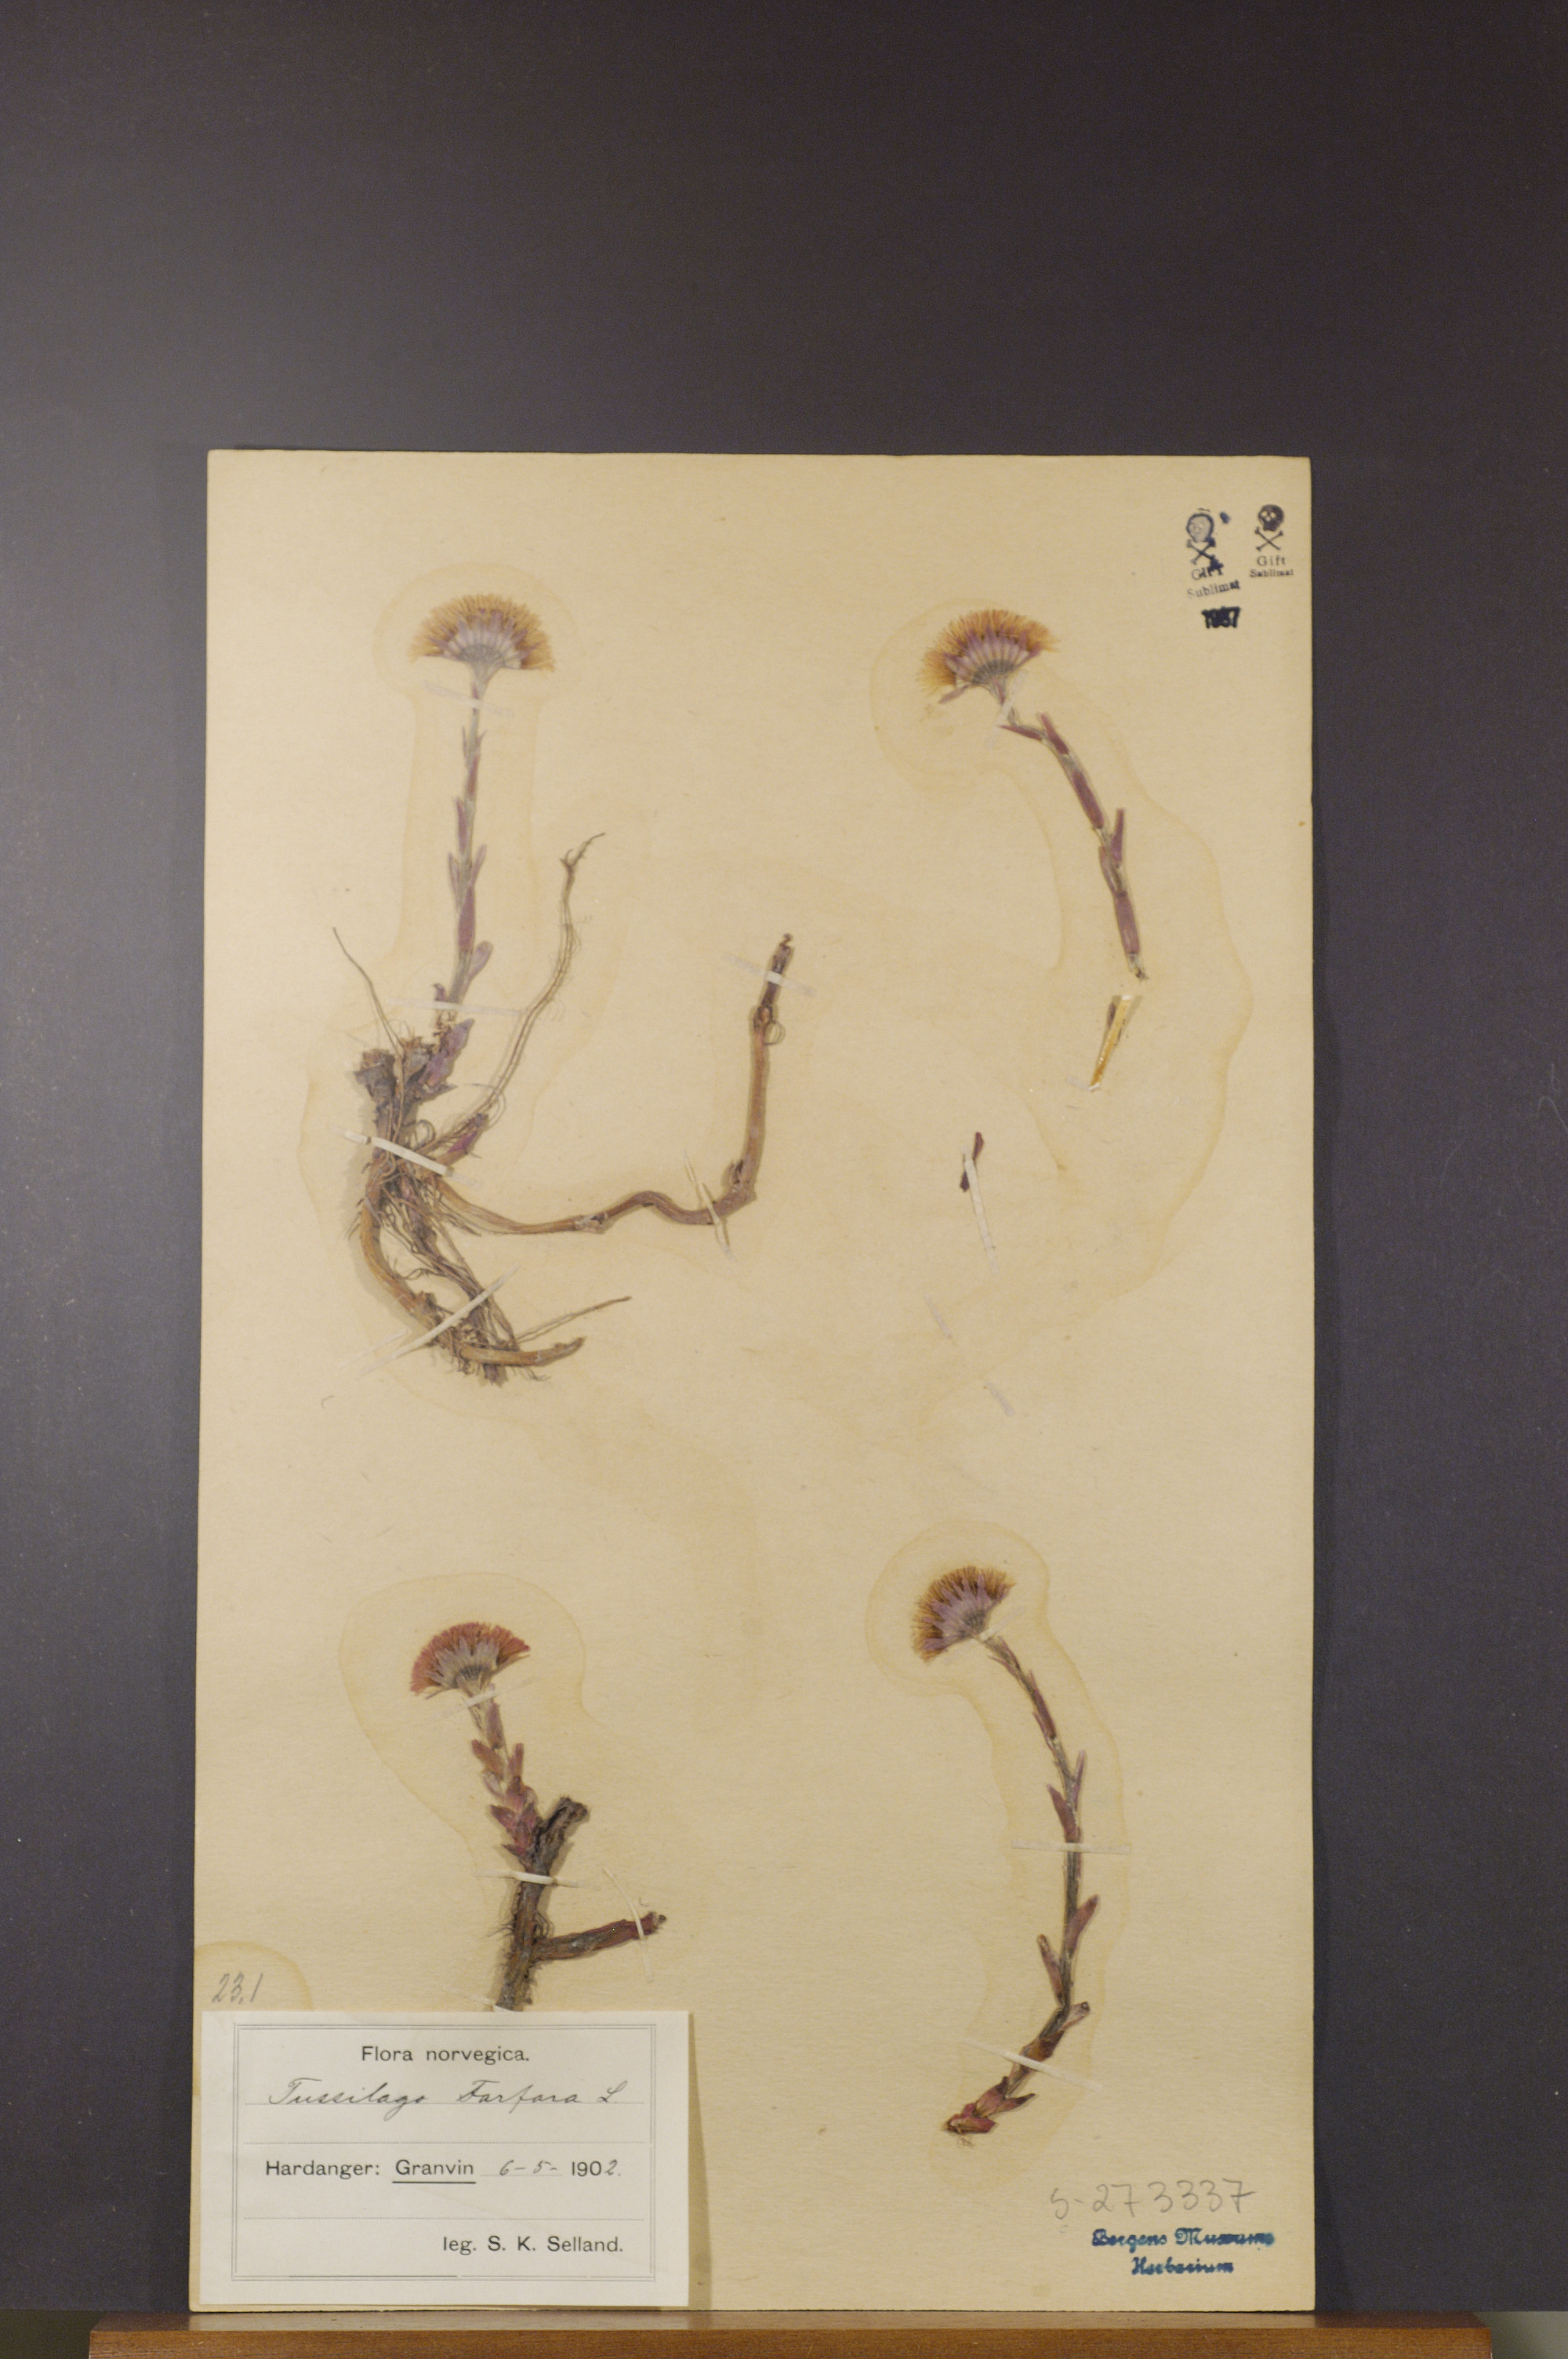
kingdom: Plantae
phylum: Tracheophyta
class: Magnoliopsida
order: Asterales
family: Asteraceae
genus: Tussilago
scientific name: Tussilago farfara
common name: Coltsfoot
